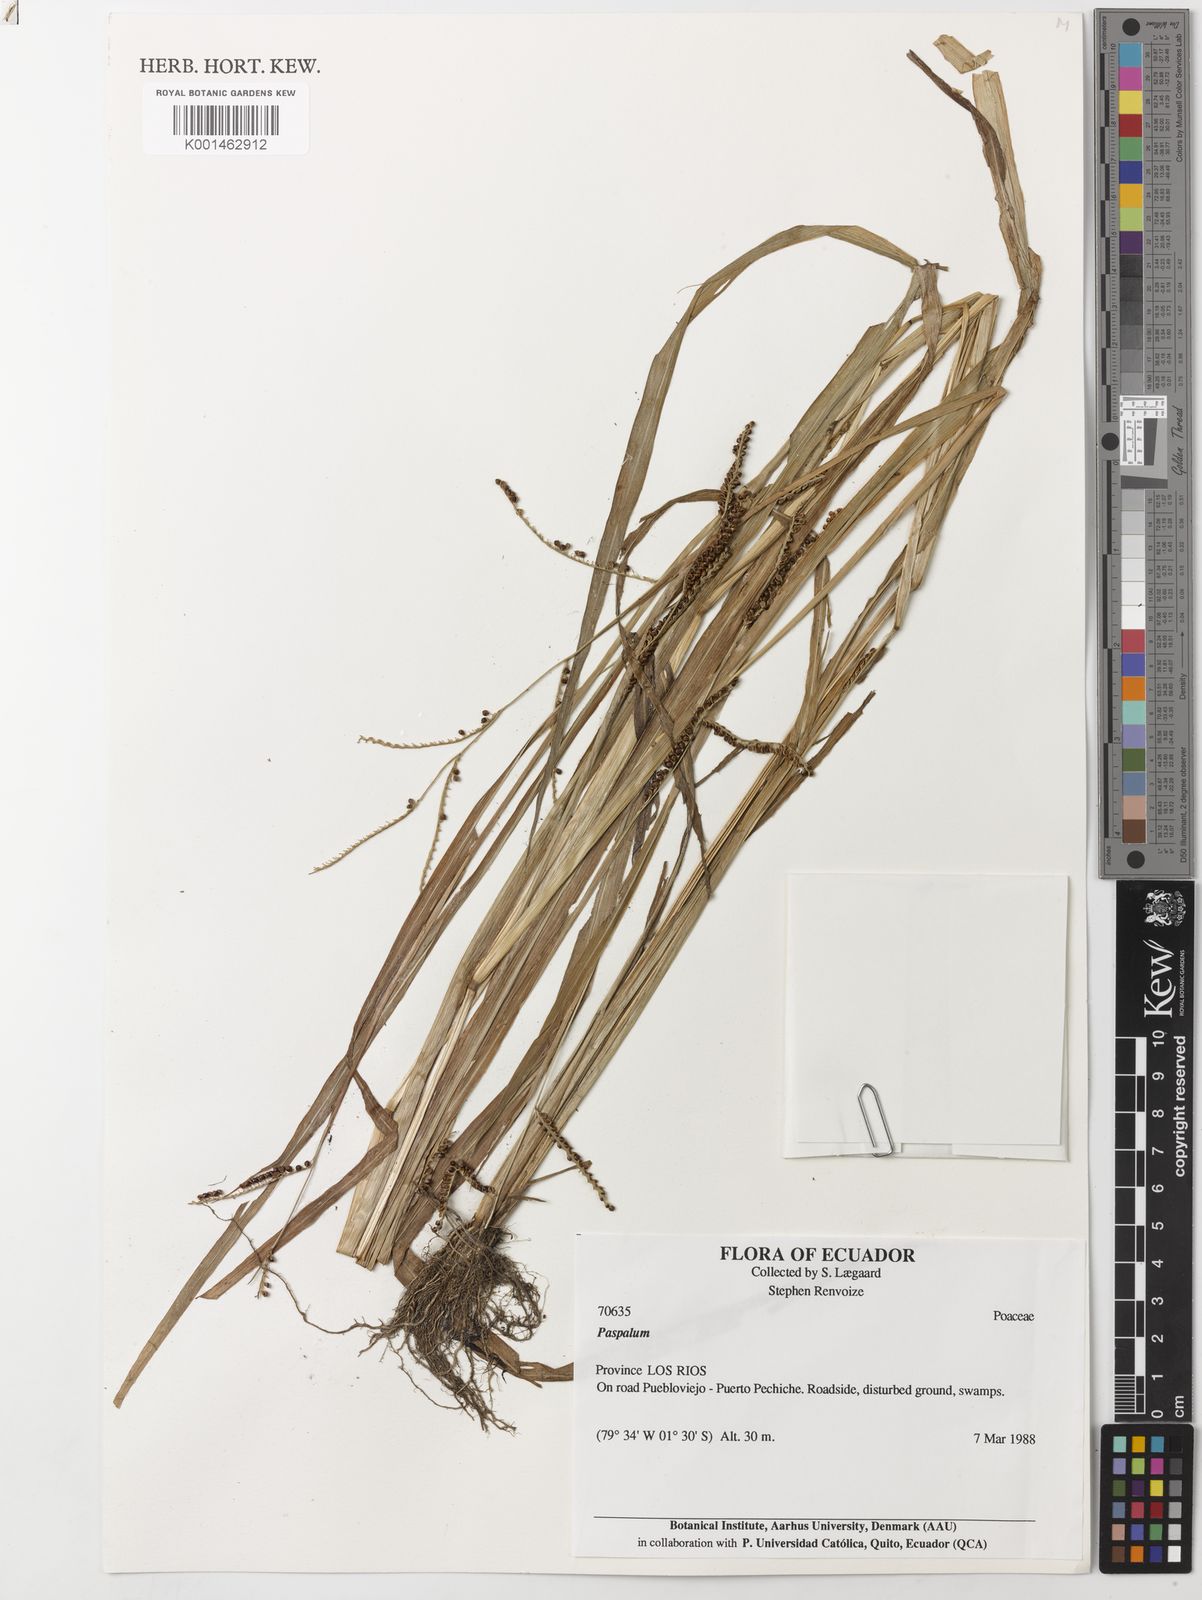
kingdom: Plantae
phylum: Tracheophyta
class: Liliopsida
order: Poales
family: Poaceae
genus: Paspalum
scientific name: Paspalum
